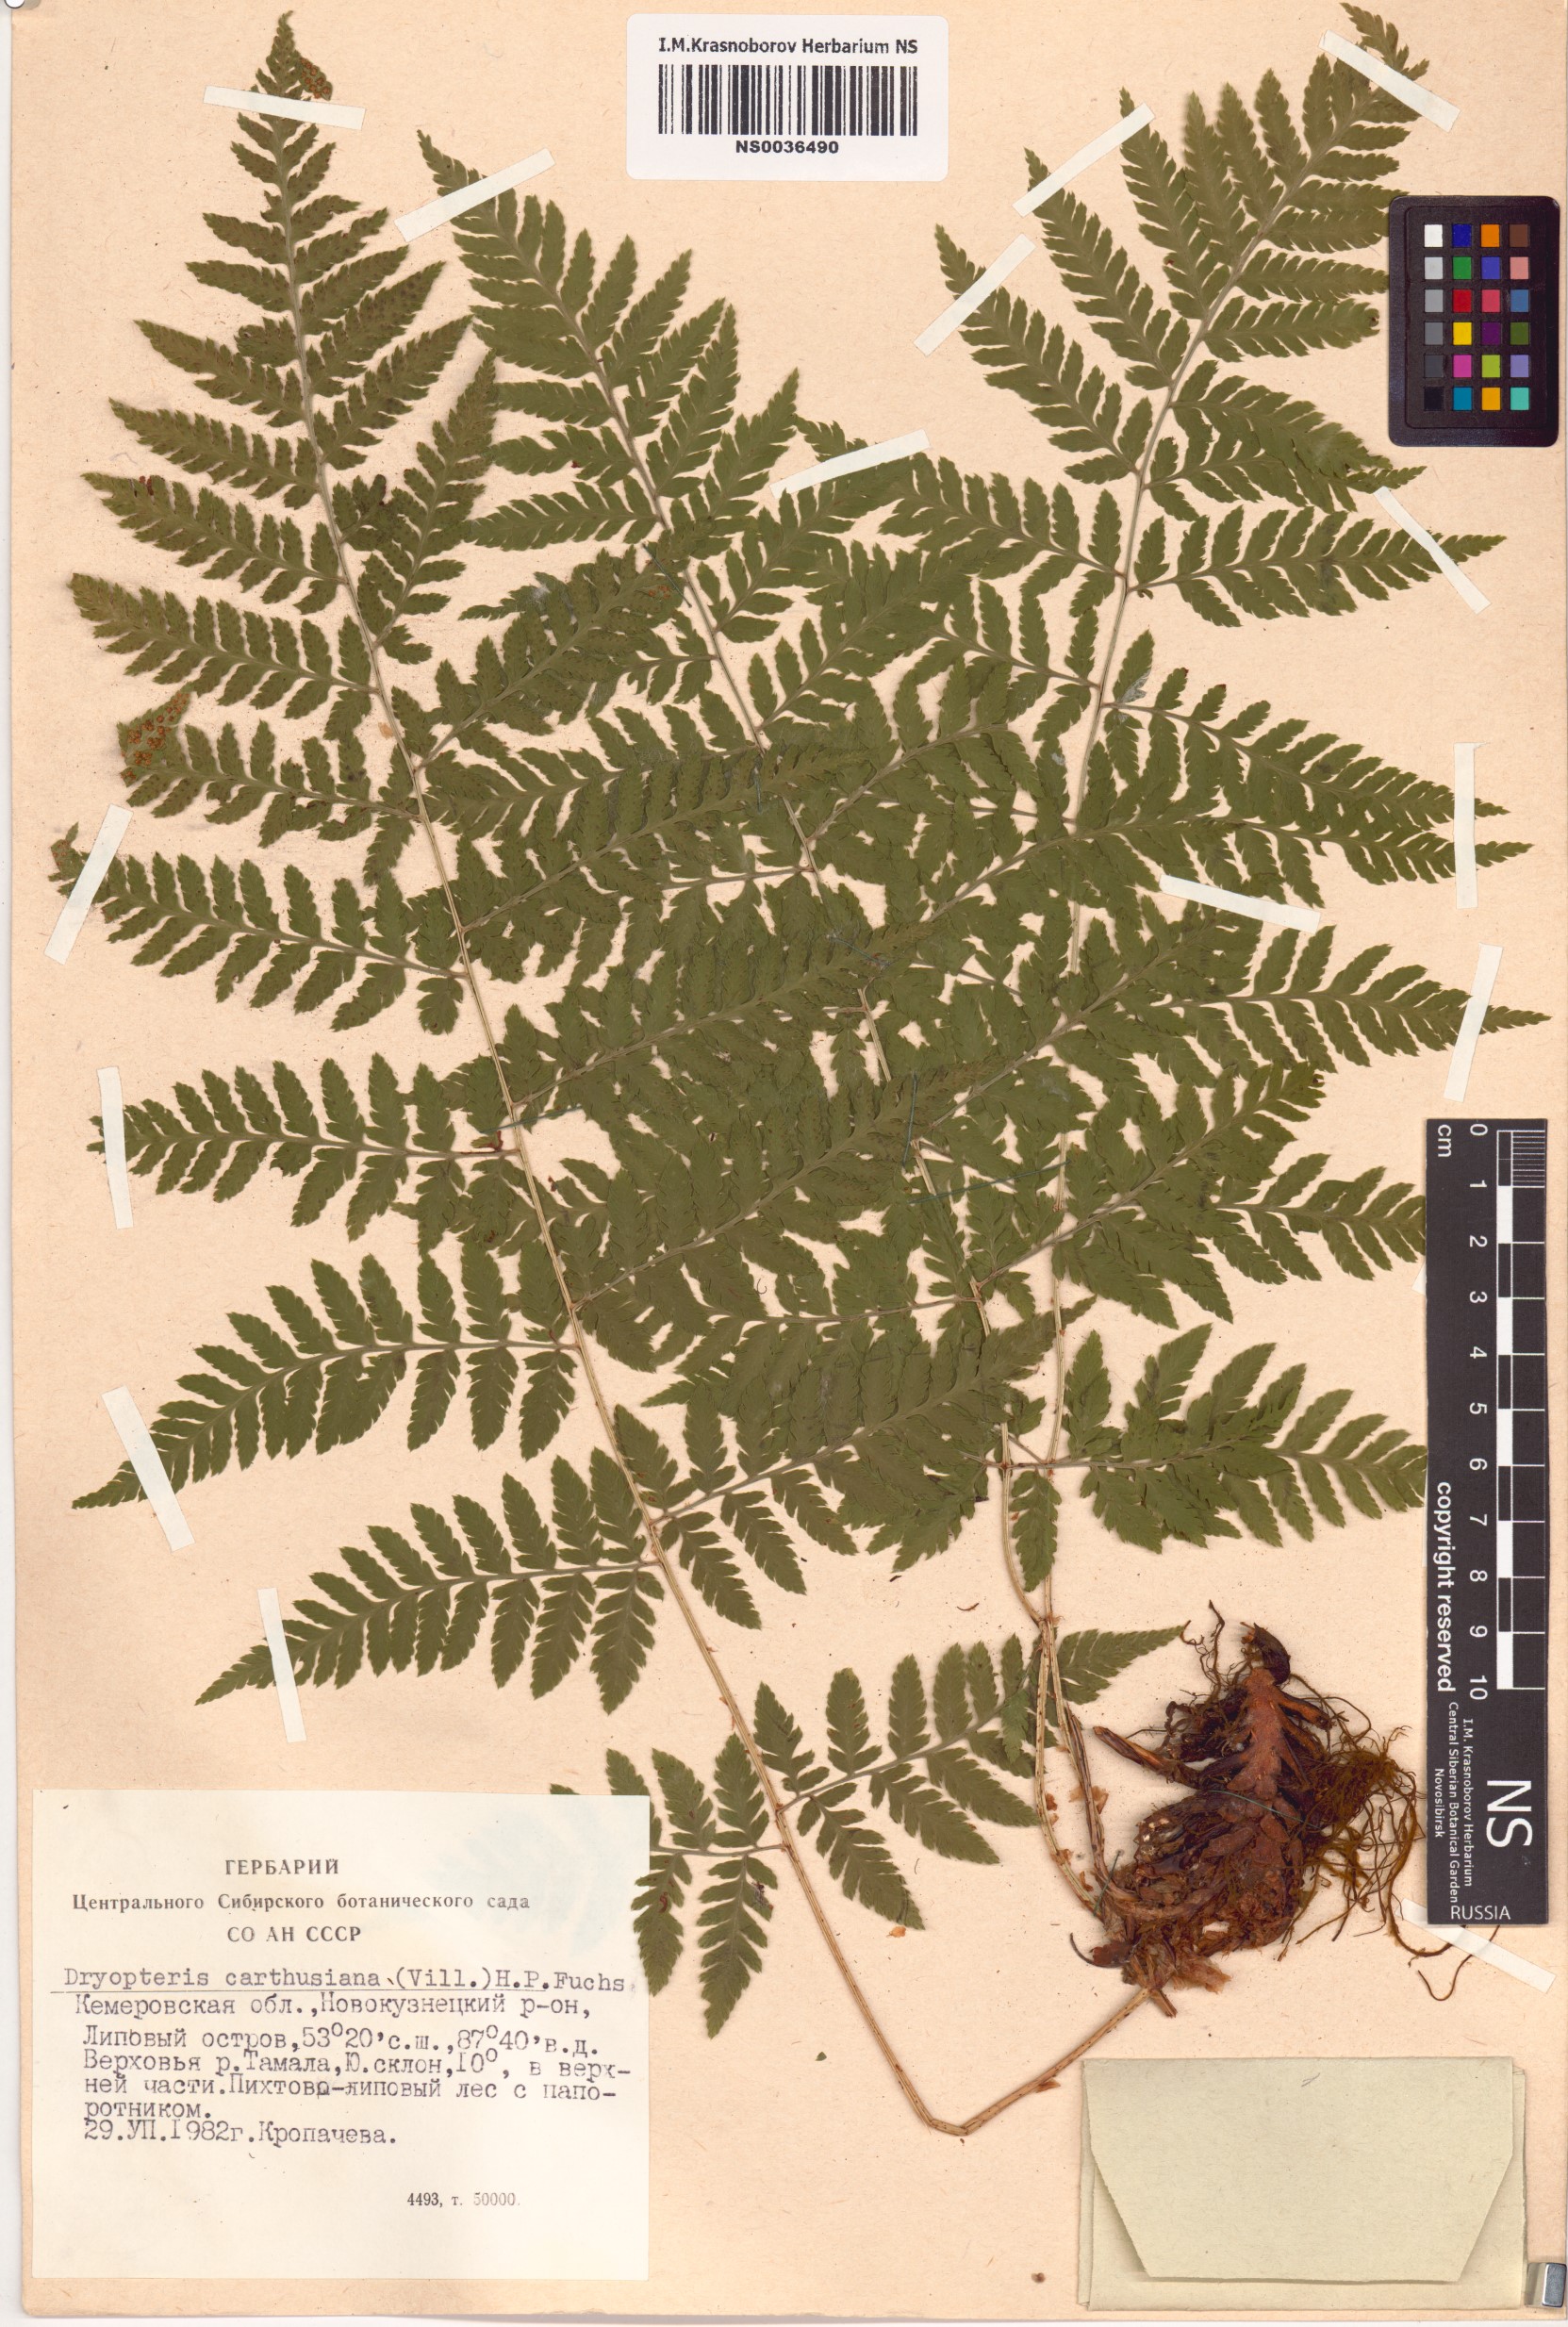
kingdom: Plantae
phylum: Tracheophyta
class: Polypodiopsida
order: Polypodiales
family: Dryopteridaceae
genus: Dryopteris
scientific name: Dryopteris carthusiana
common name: Narrow buckler-fern
